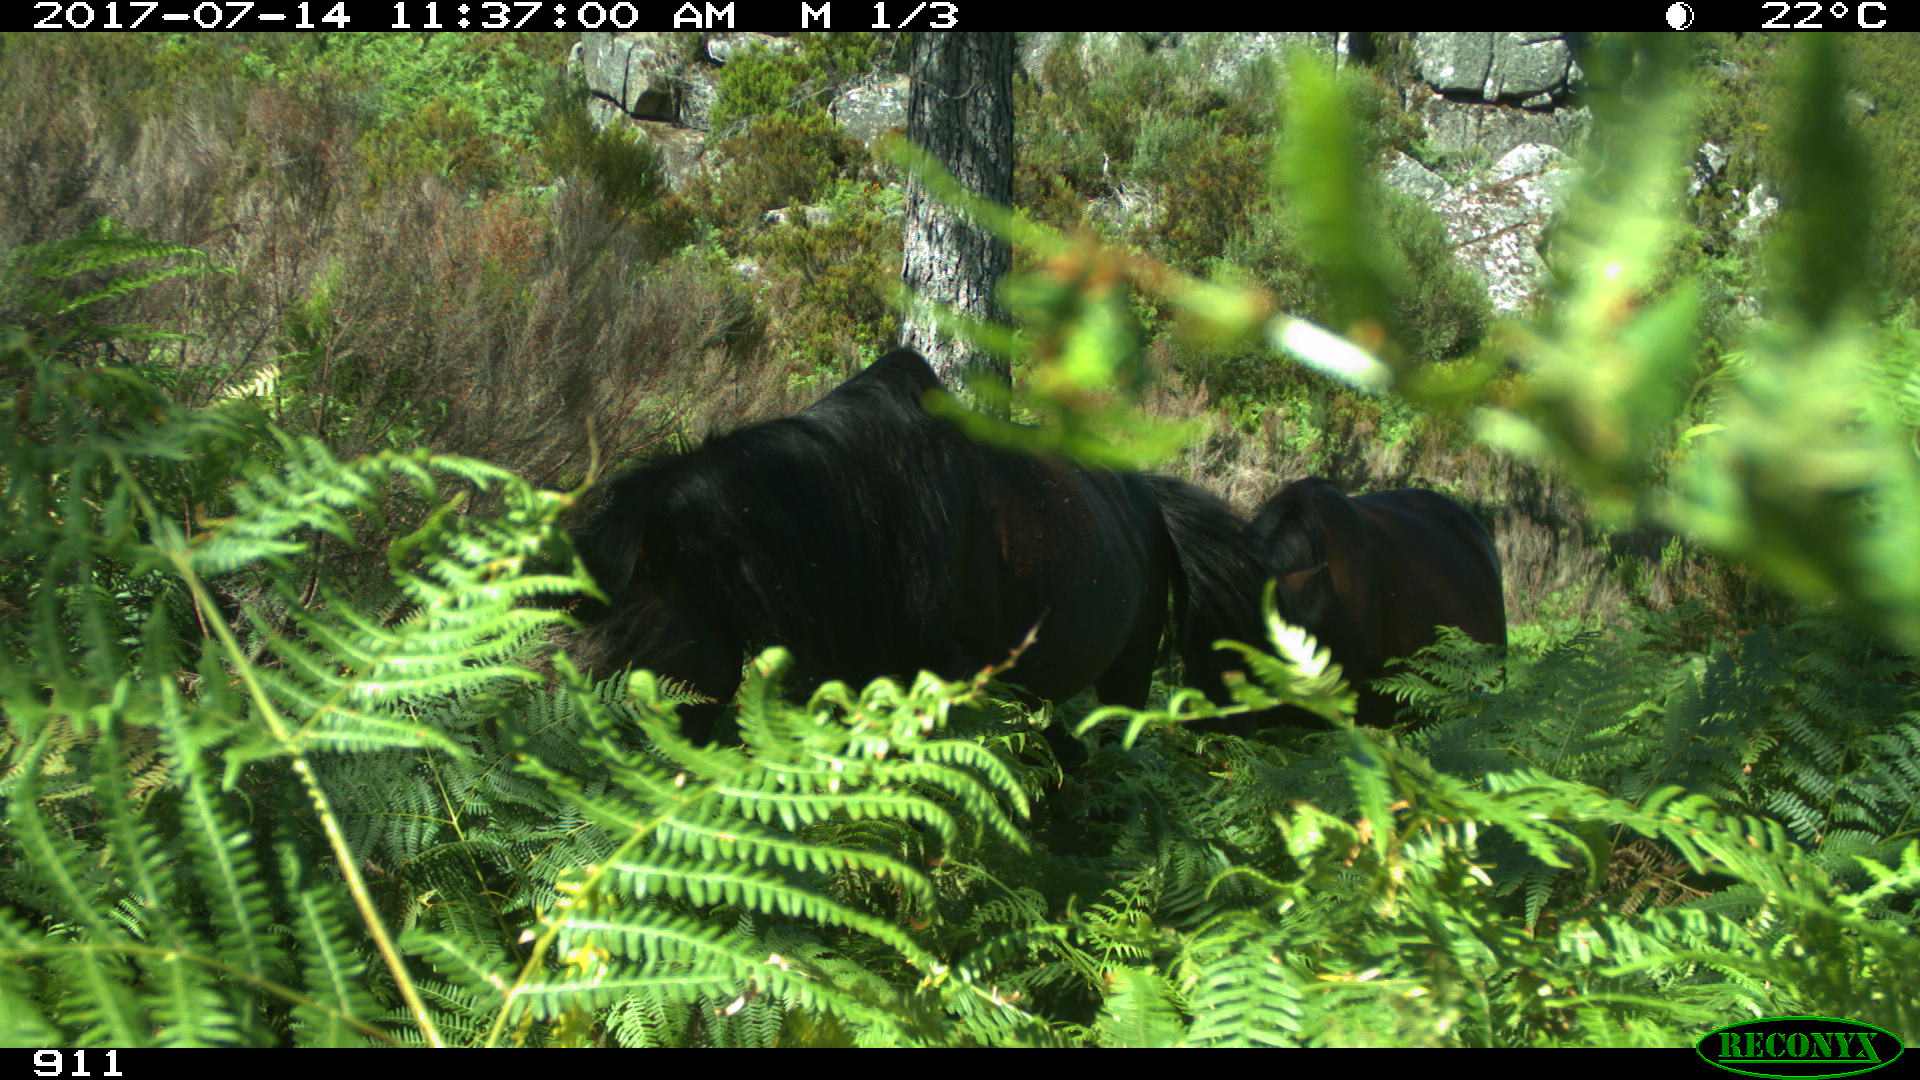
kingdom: Animalia
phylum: Chordata
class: Mammalia
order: Perissodactyla
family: Equidae
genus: Equus
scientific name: Equus caballus
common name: Horse
